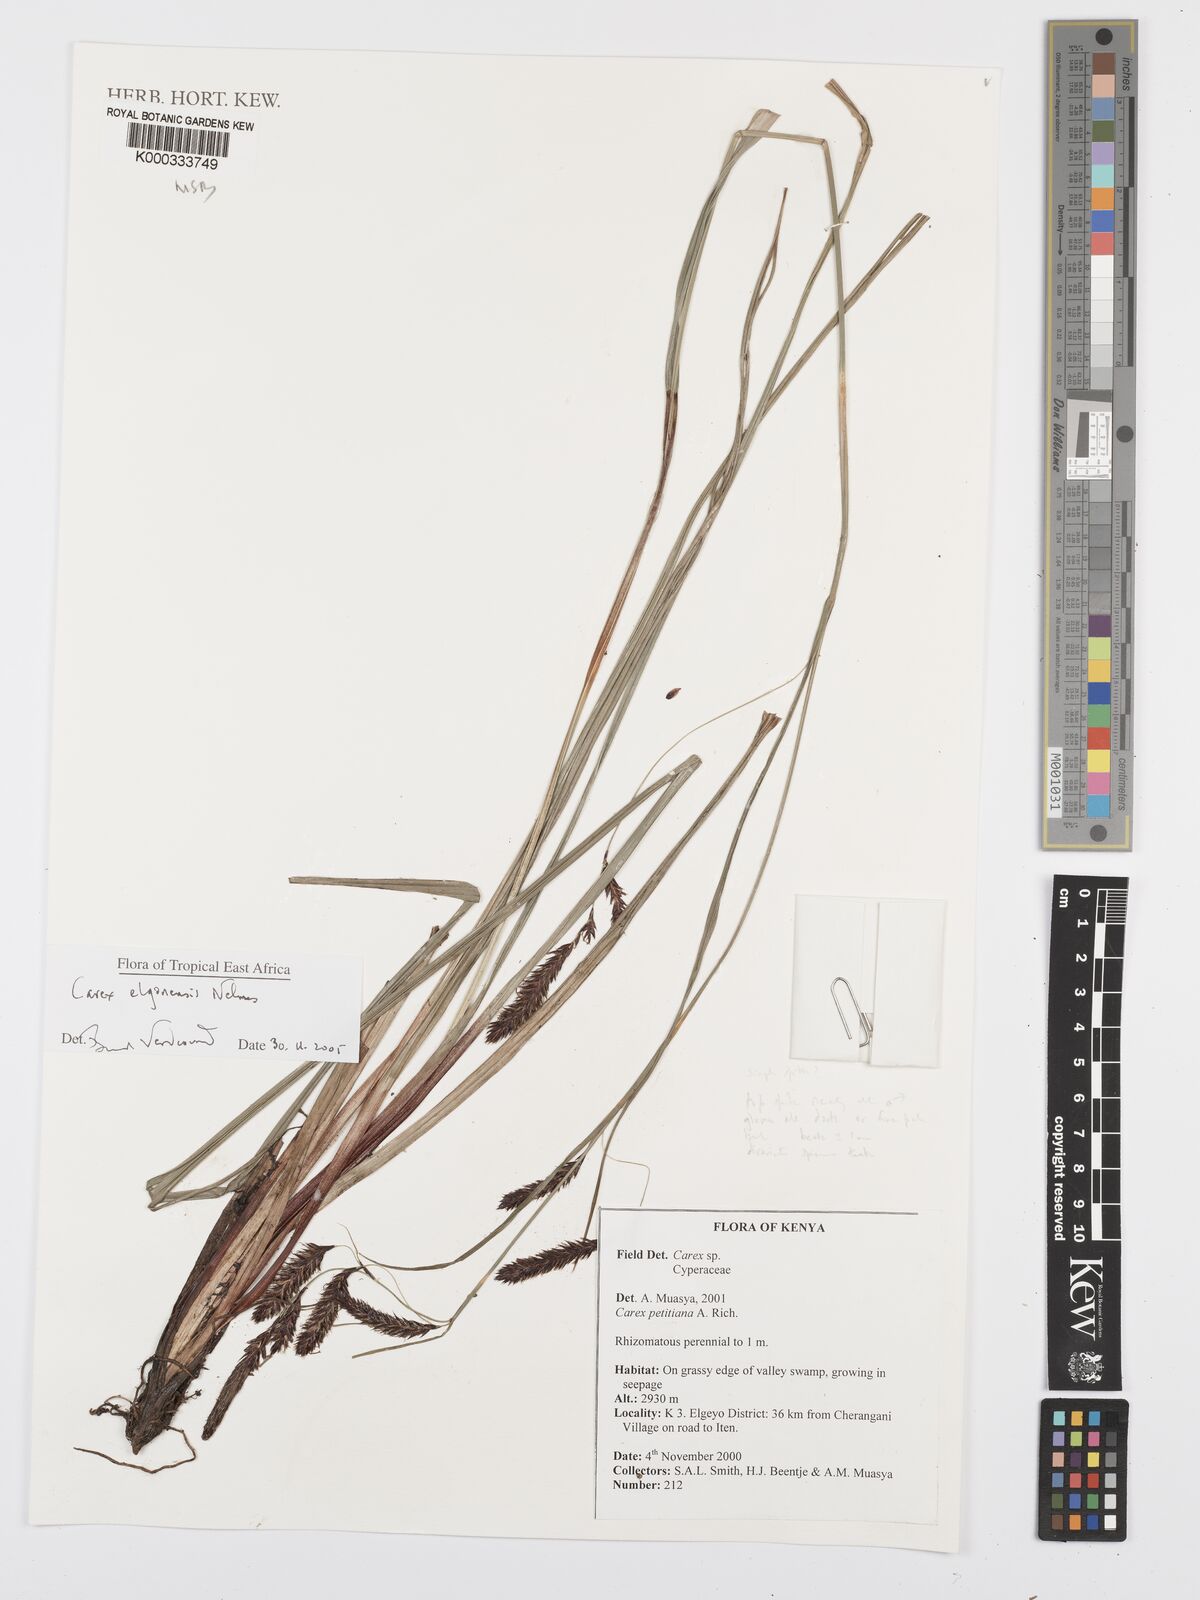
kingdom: Plantae
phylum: Tracheophyta
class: Liliopsida
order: Poales
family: Cyperaceae
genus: Carex
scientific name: Carex elgonensis
